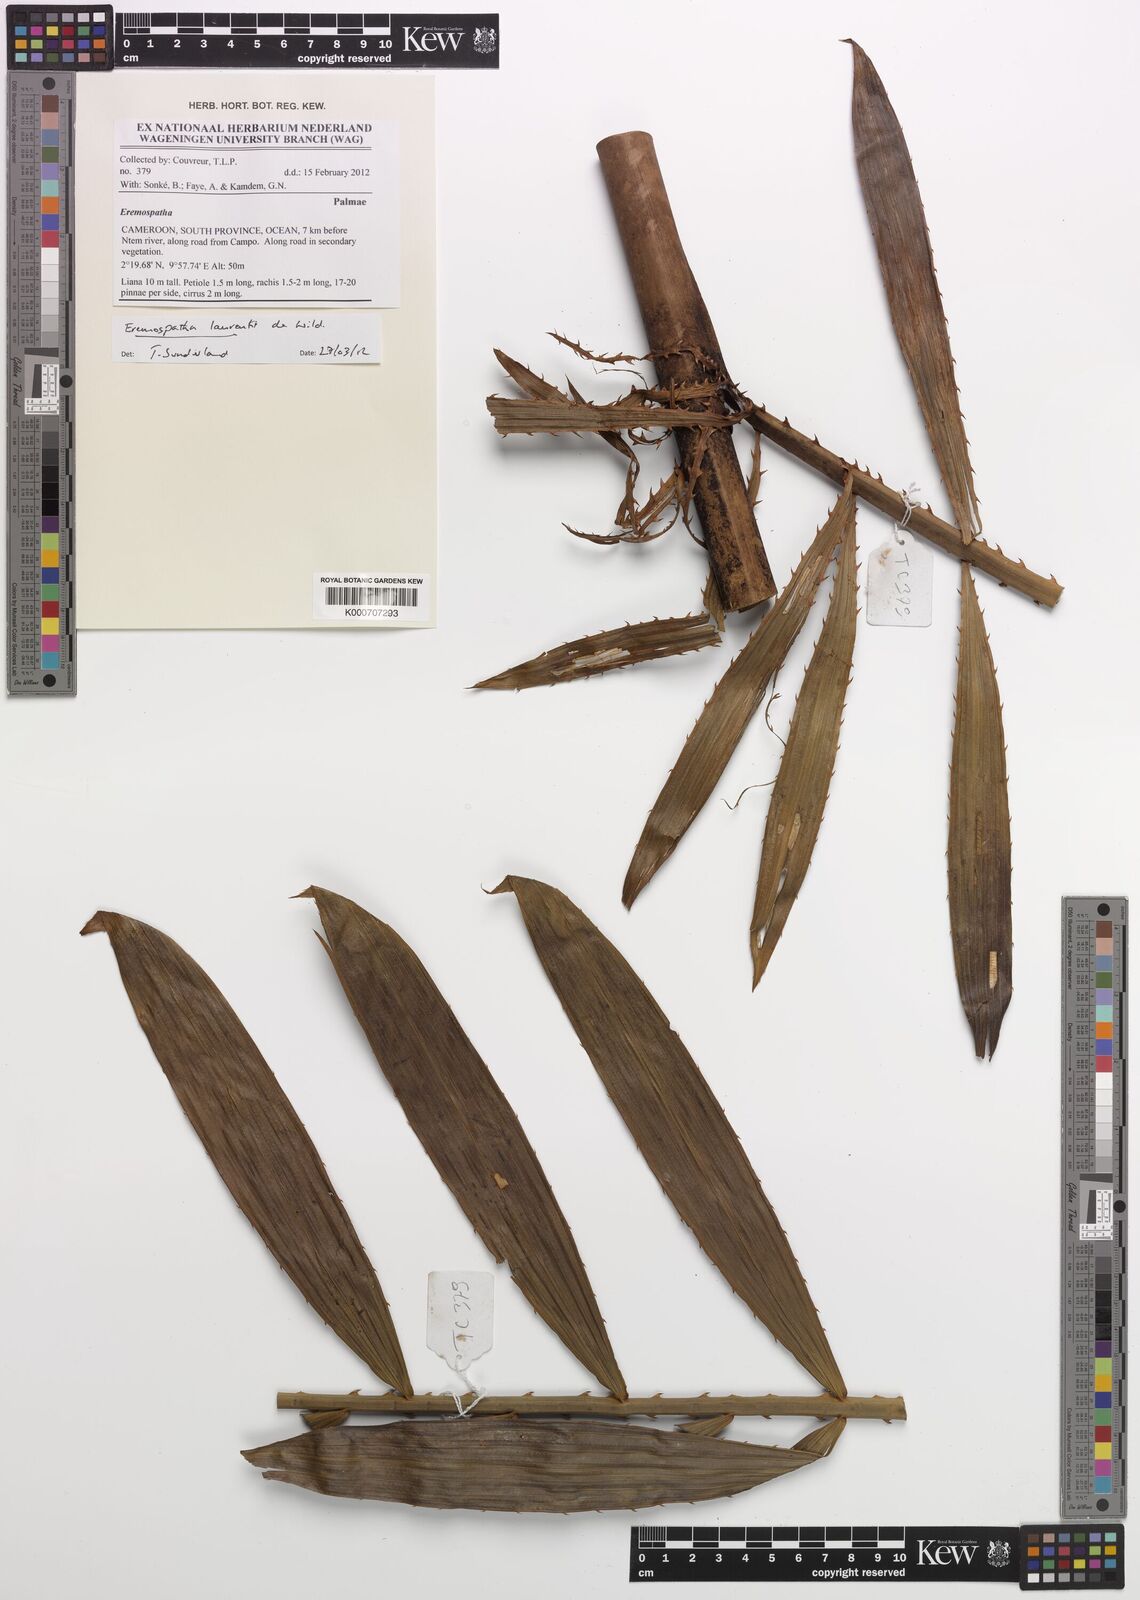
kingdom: Plantae
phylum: Tracheophyta
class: Liliopsida
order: Arecales
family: Arecaceae
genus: Eremospatha
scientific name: Eremospatha laurentii
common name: Rattan palm
